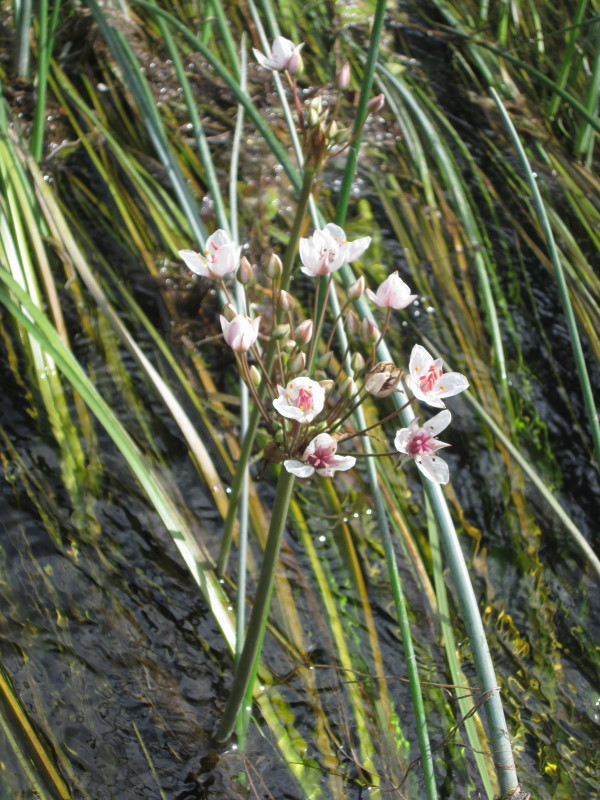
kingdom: Plantae
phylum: Tracheophyta
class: Liliopsida
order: Alismatales
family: Butomaceae
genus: Butomus
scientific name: Butomus umbellatus
